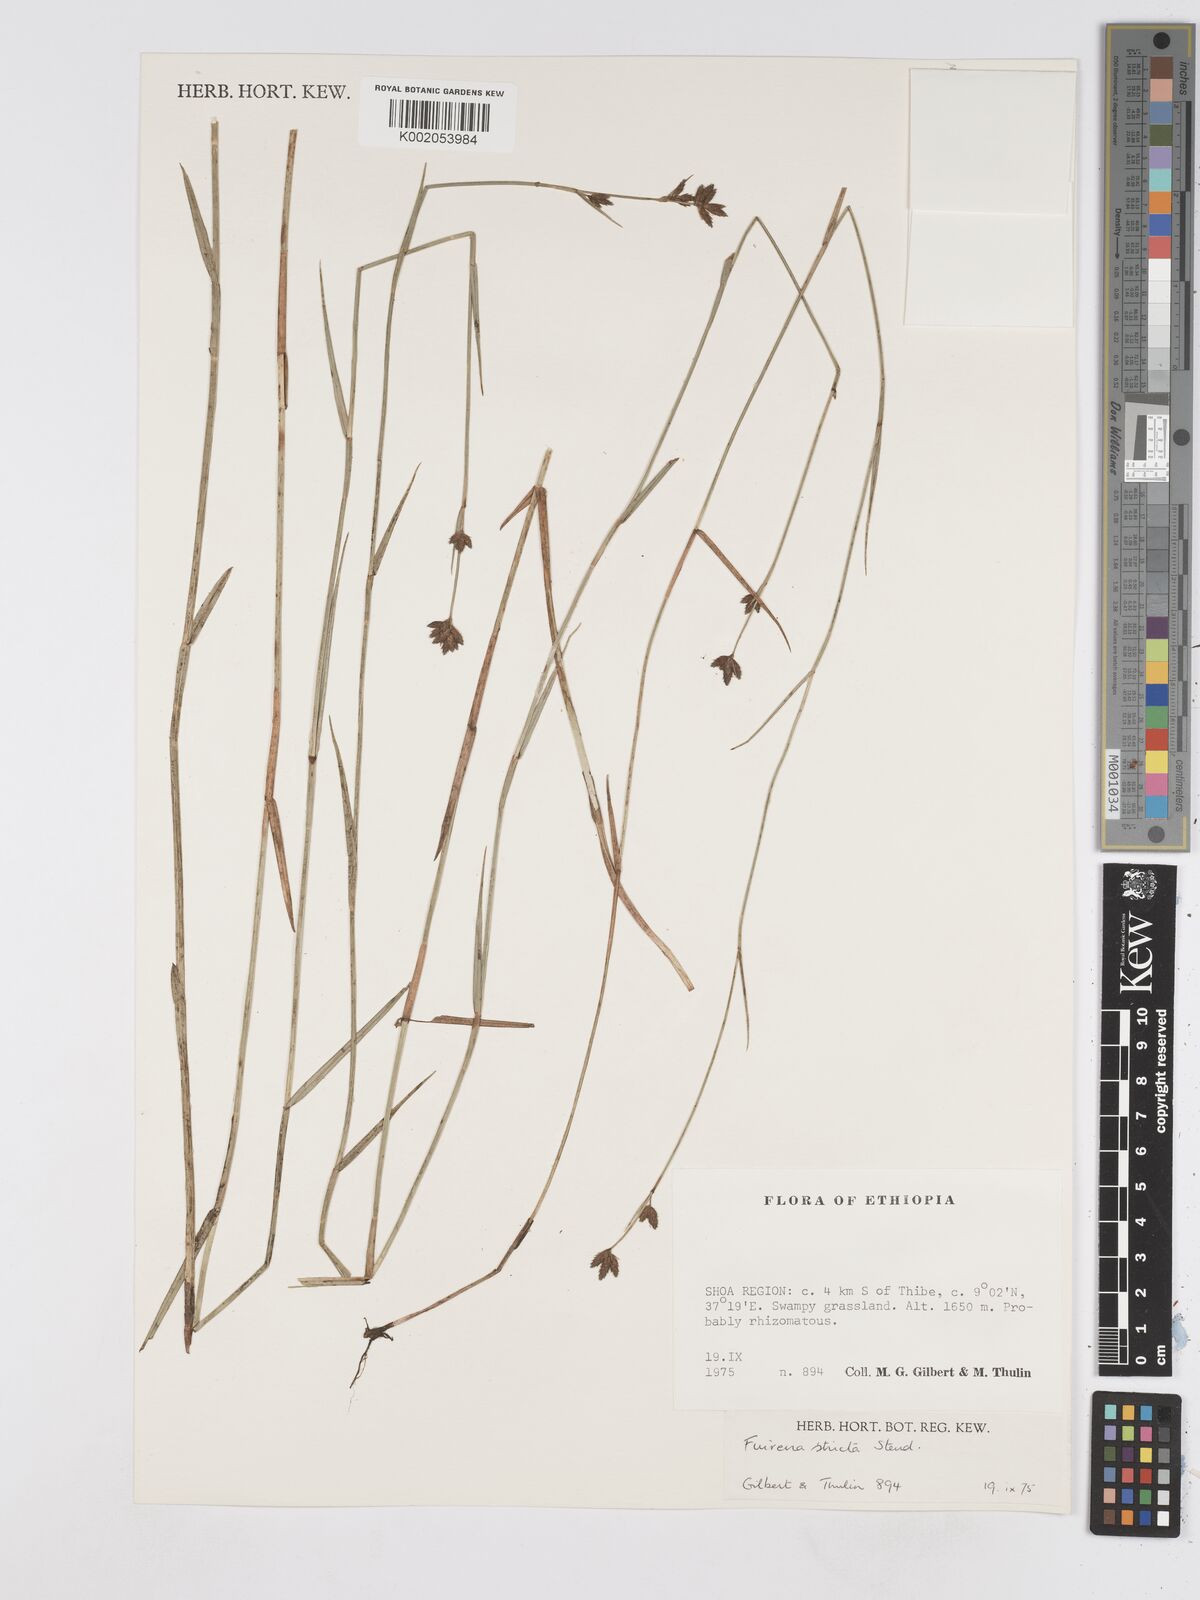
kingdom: Plantae
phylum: Tracheophyta
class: Liliopsida
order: Poales
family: Cyperaceae
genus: Fuirena
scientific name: Fuirena stricta
